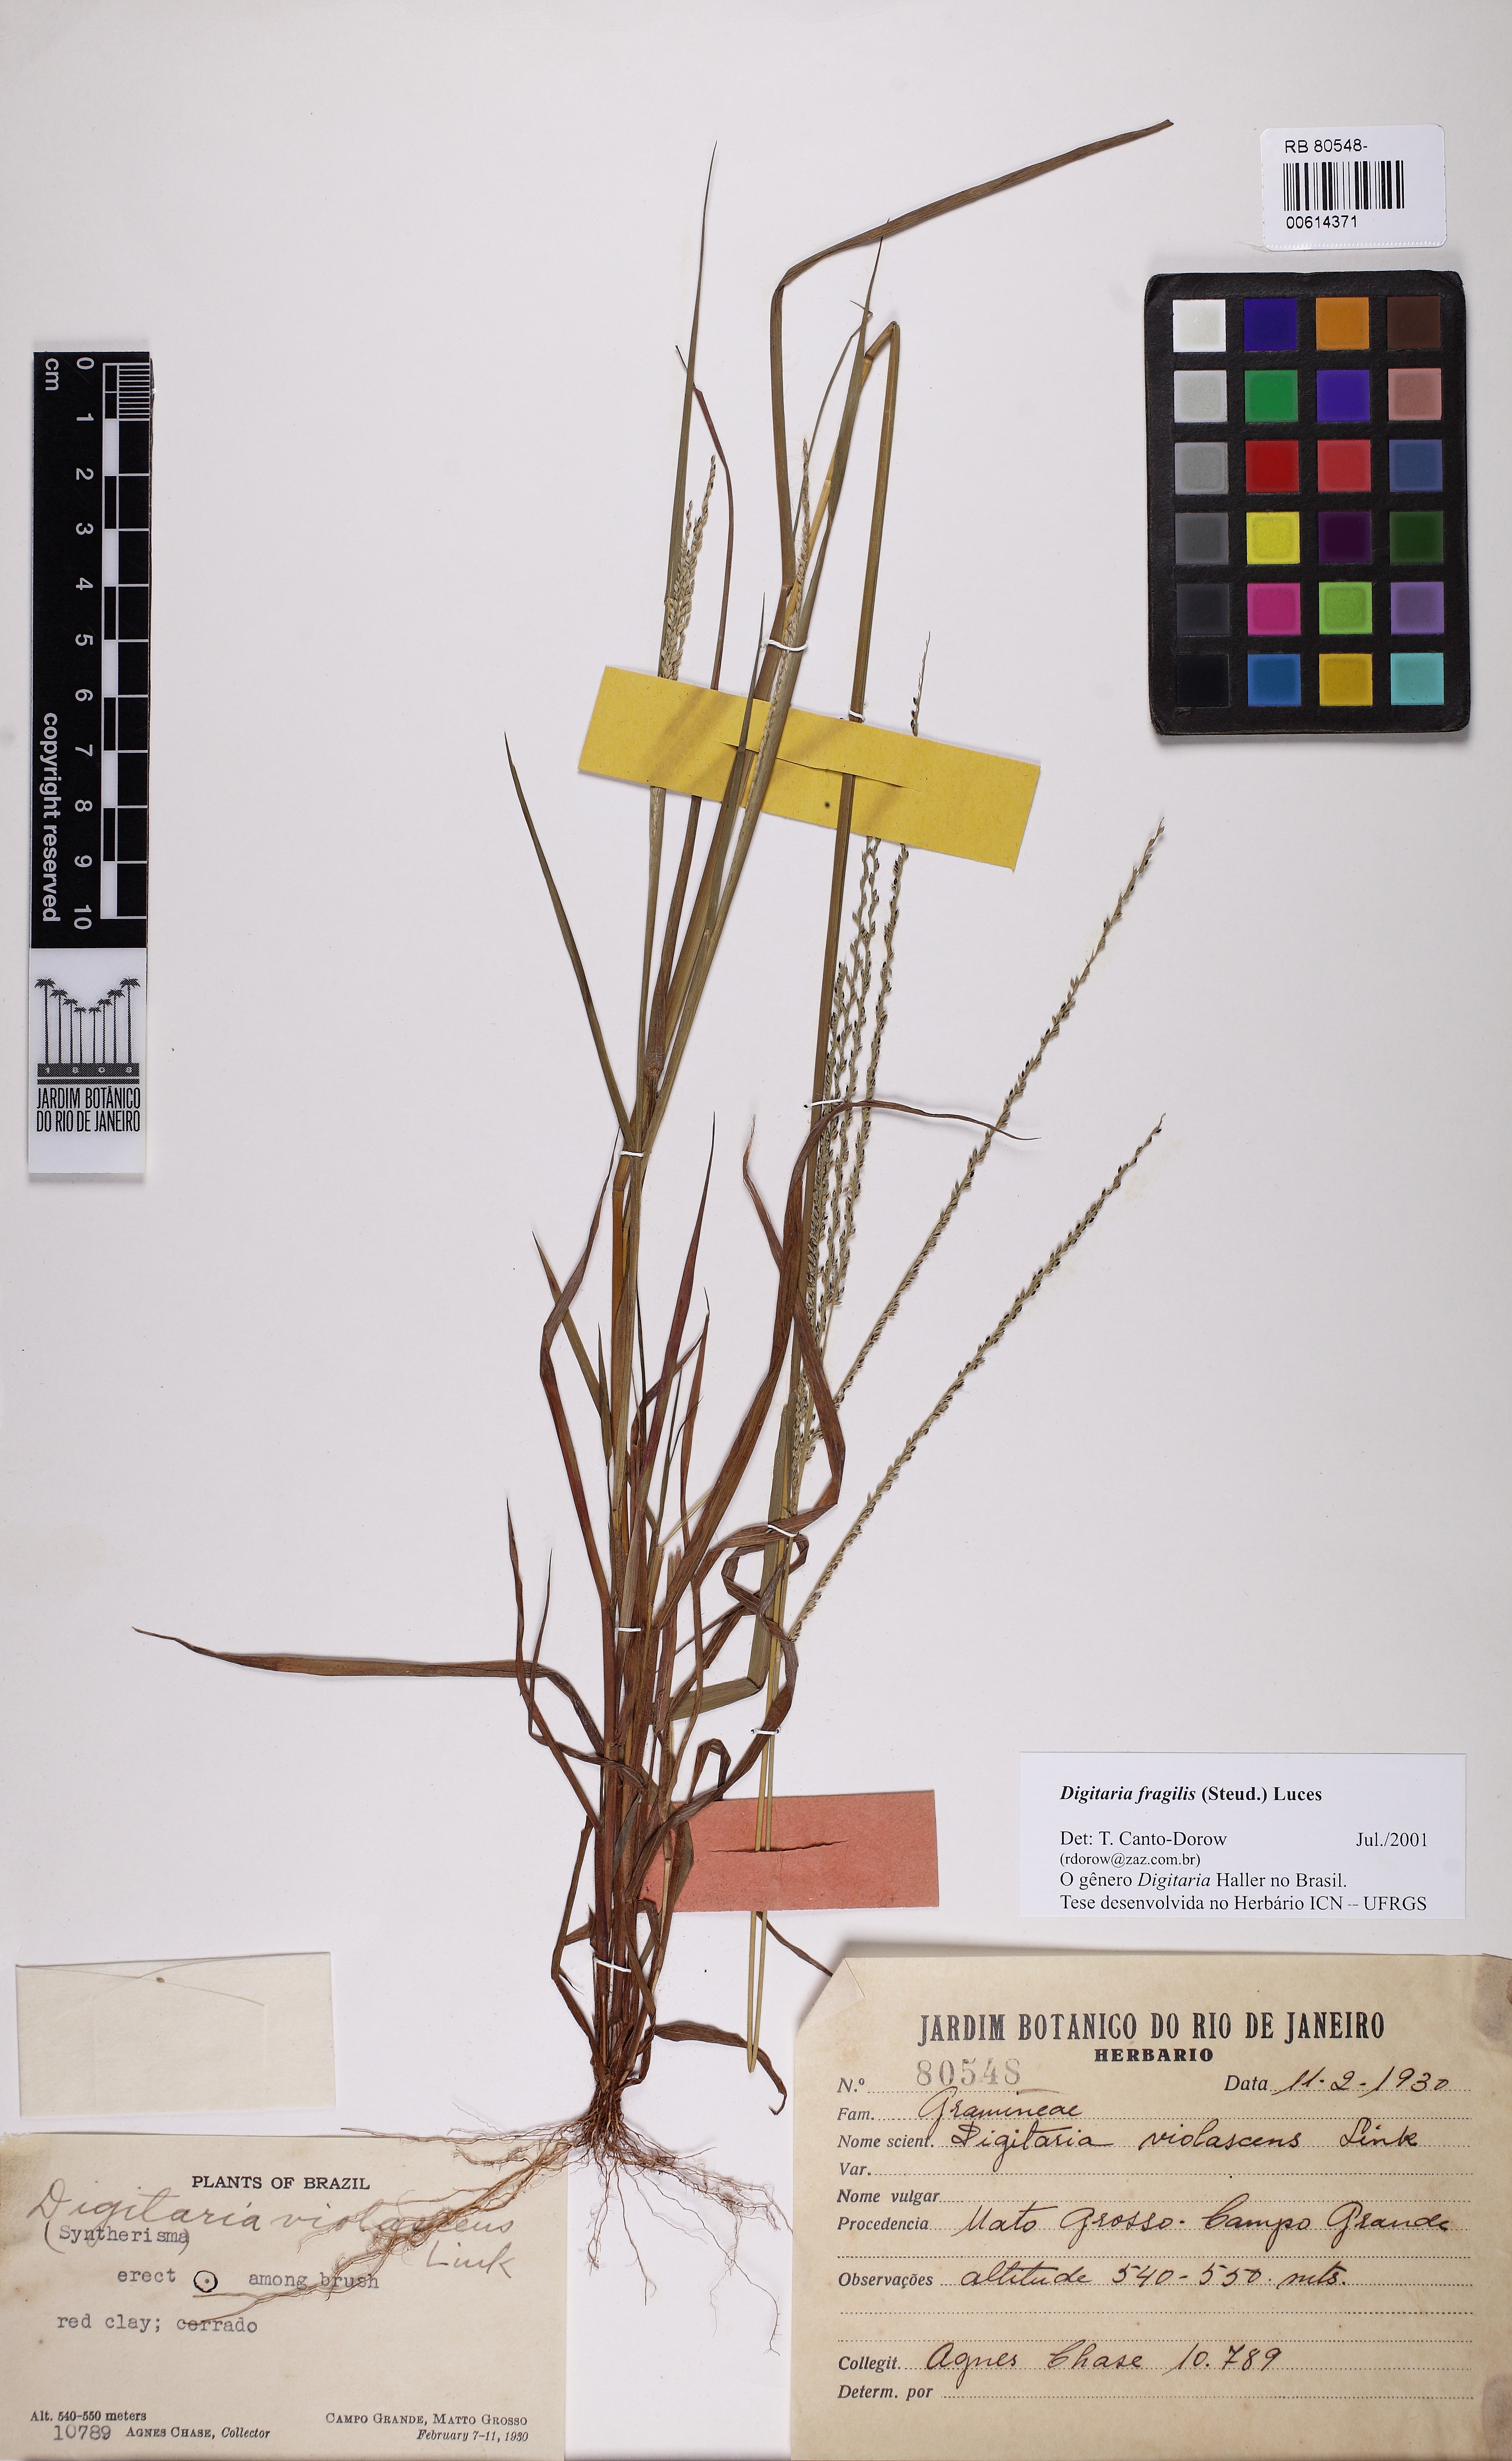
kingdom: Plantae
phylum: Tracheophyta
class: Liliopsida
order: Poales
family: Poaceae
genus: Digitaria
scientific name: Digitaria fragilis
